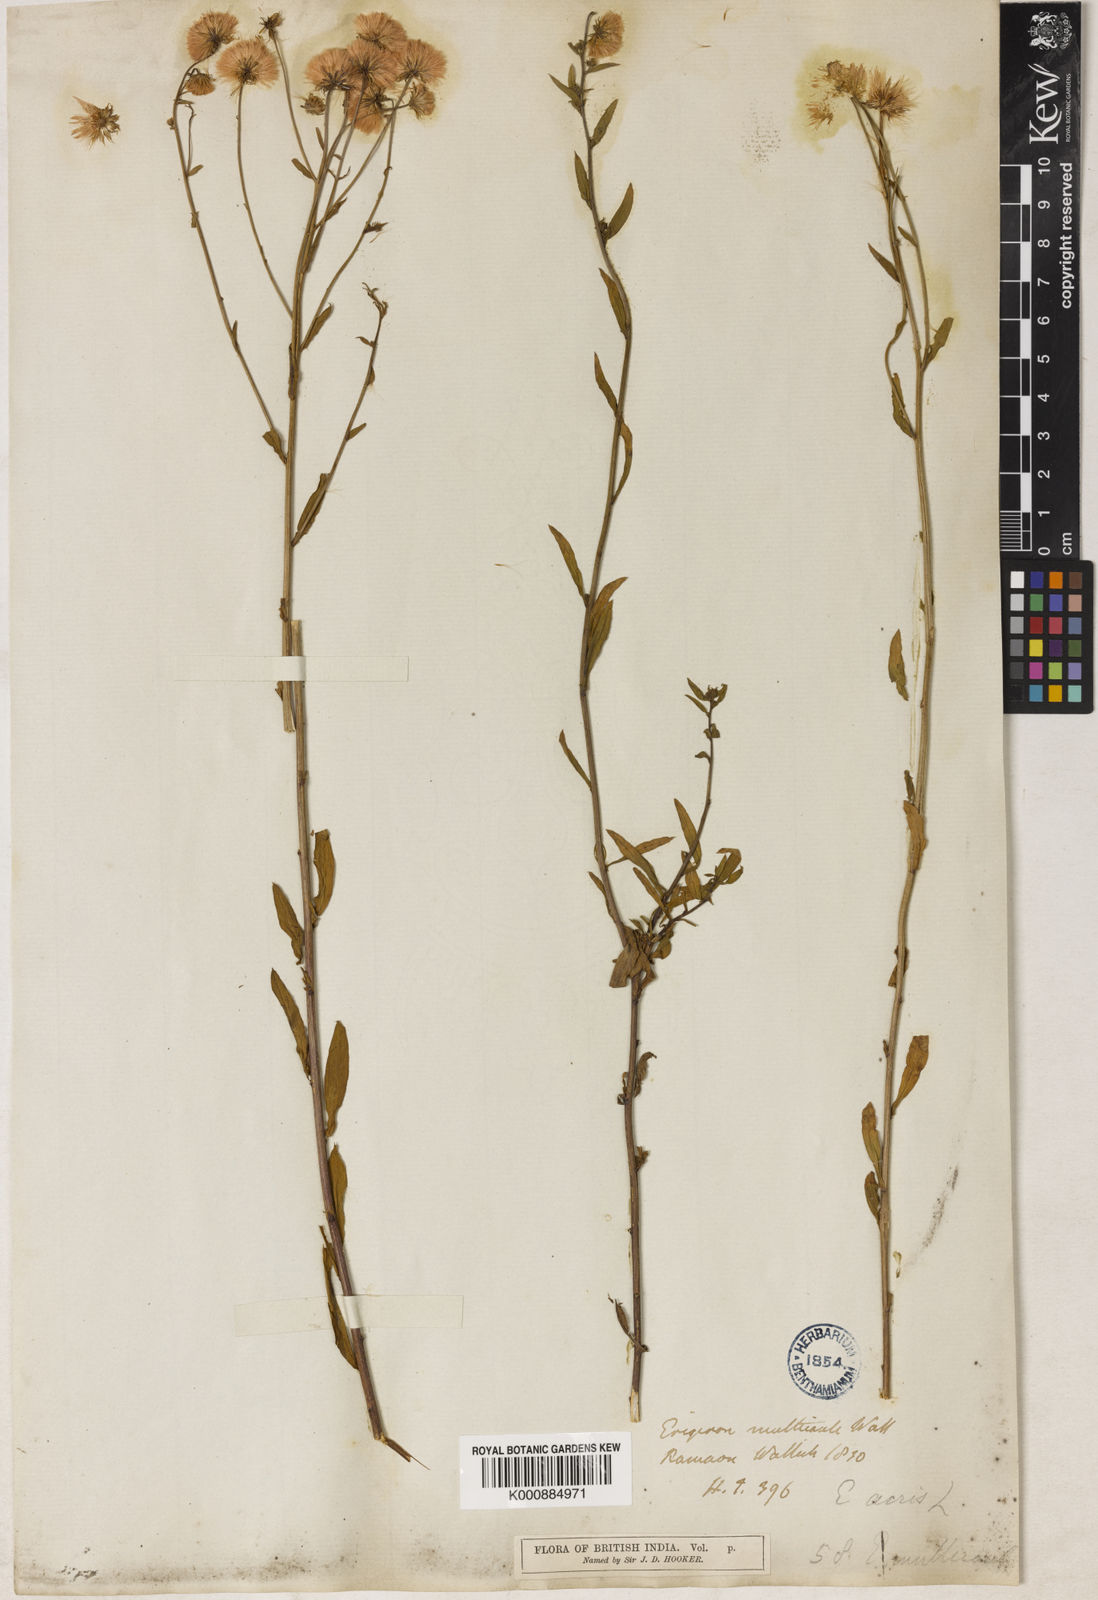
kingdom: Plantae
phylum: Tracheophyta
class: Magnoliopsida
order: Asterales
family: Asteraceae
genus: Erigeron
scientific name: Erigeron alpinus
